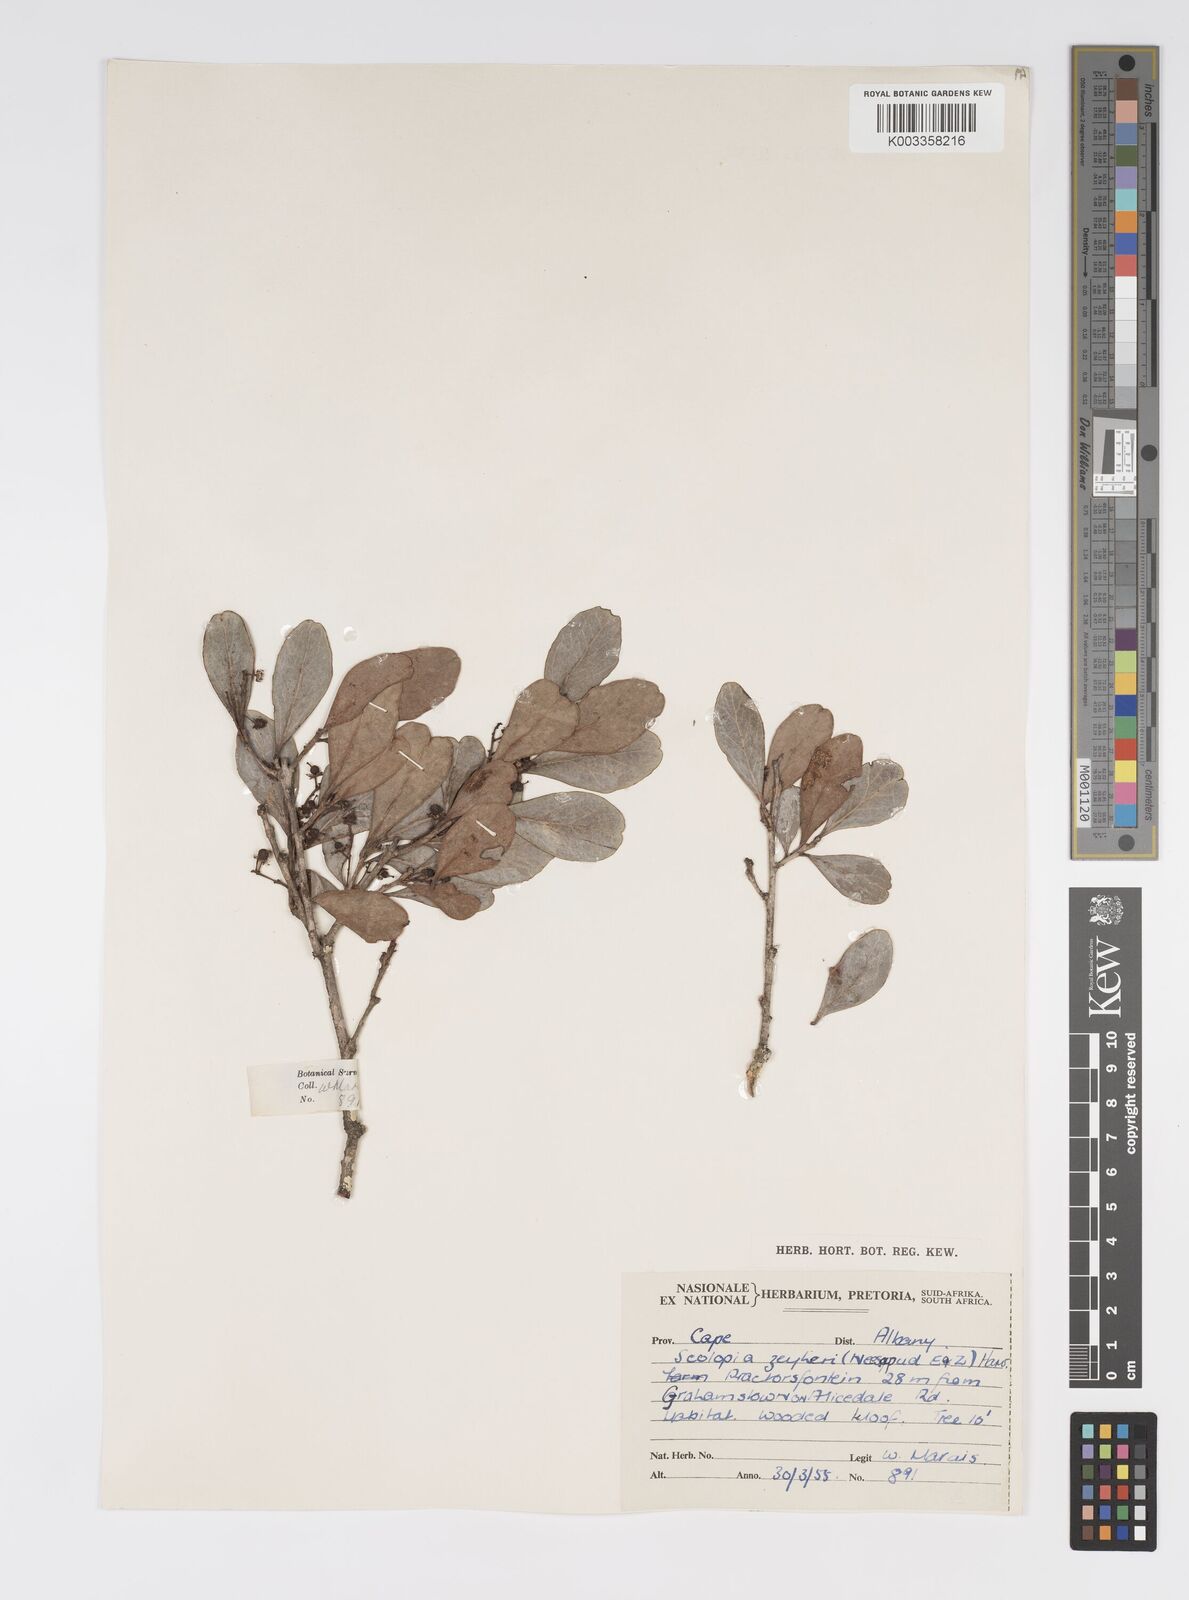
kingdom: Plantae
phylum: Tracheophyta
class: Magnoliopsida
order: Malpighiales
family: Salicaceae
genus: Scolopia
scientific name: Scolopia zeyheri
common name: Thorn pear
